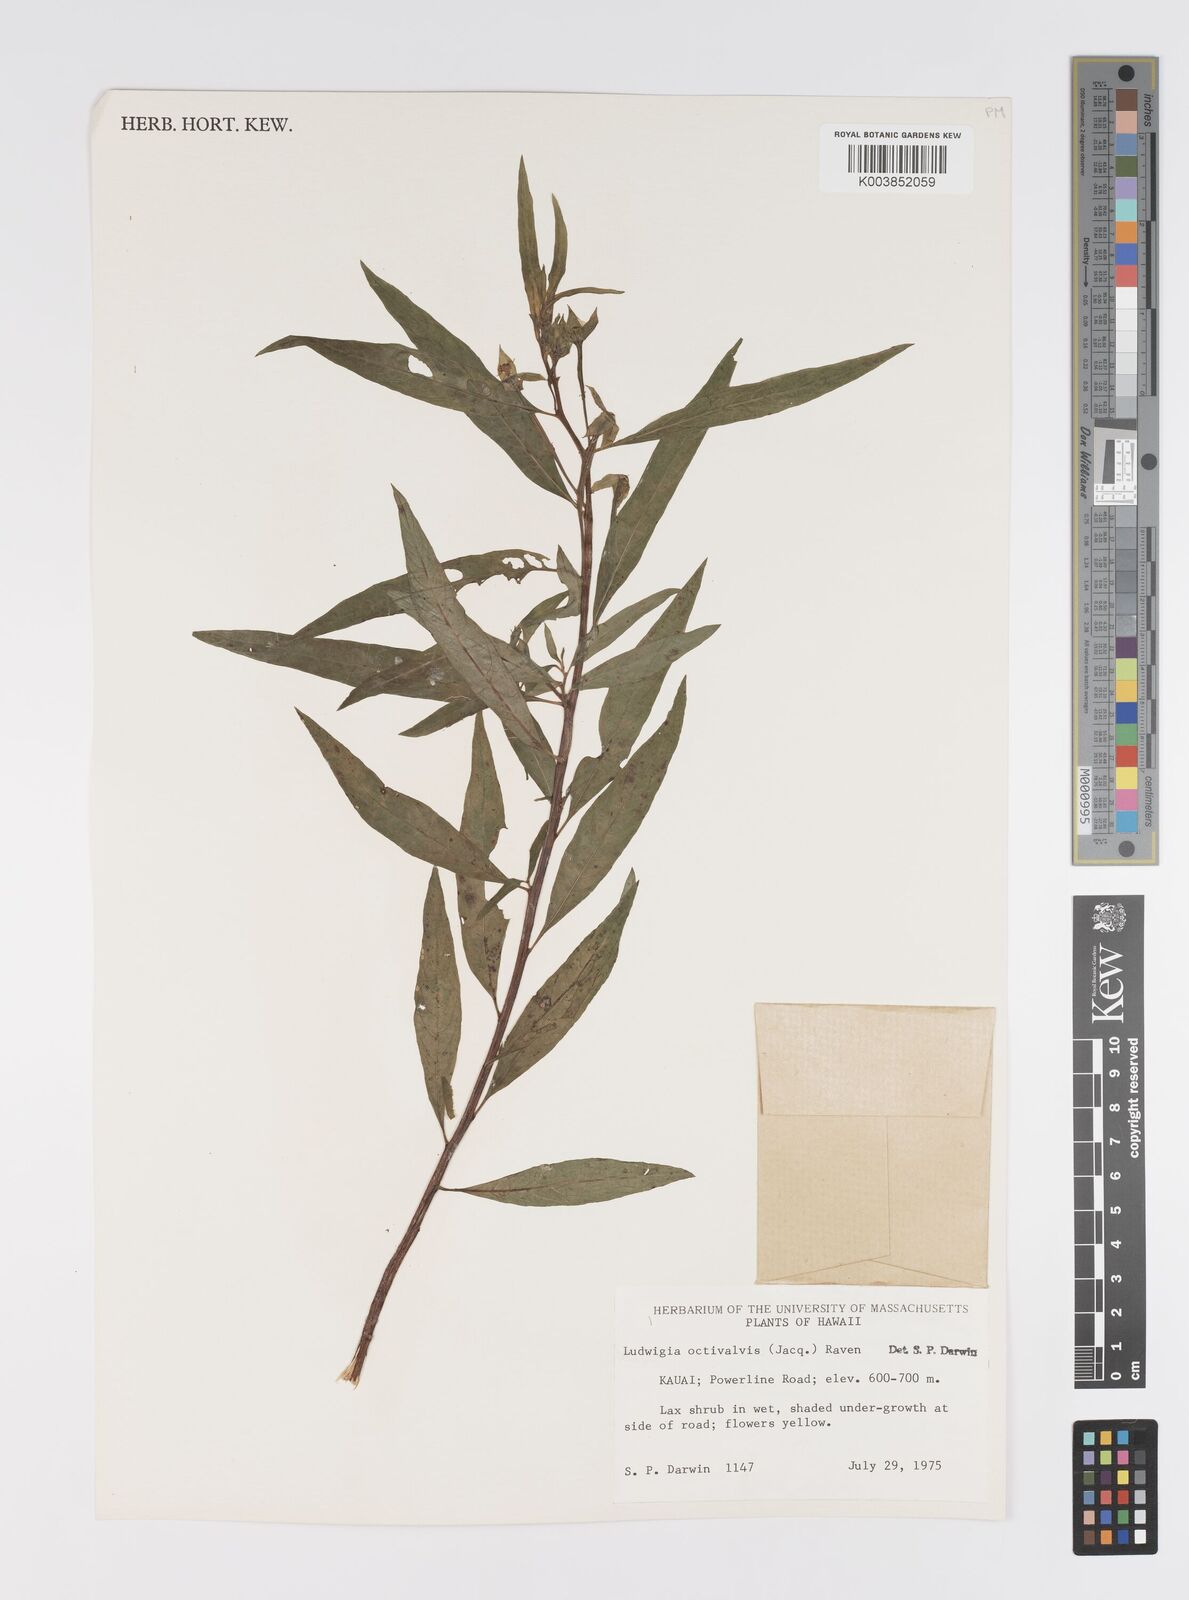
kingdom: Plantae
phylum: Tracheophyta
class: Magnoliopsida
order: Myrtales
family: Onagraceae
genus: Ludwigia
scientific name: Ludwigia octovalvis
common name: Water-primrose
